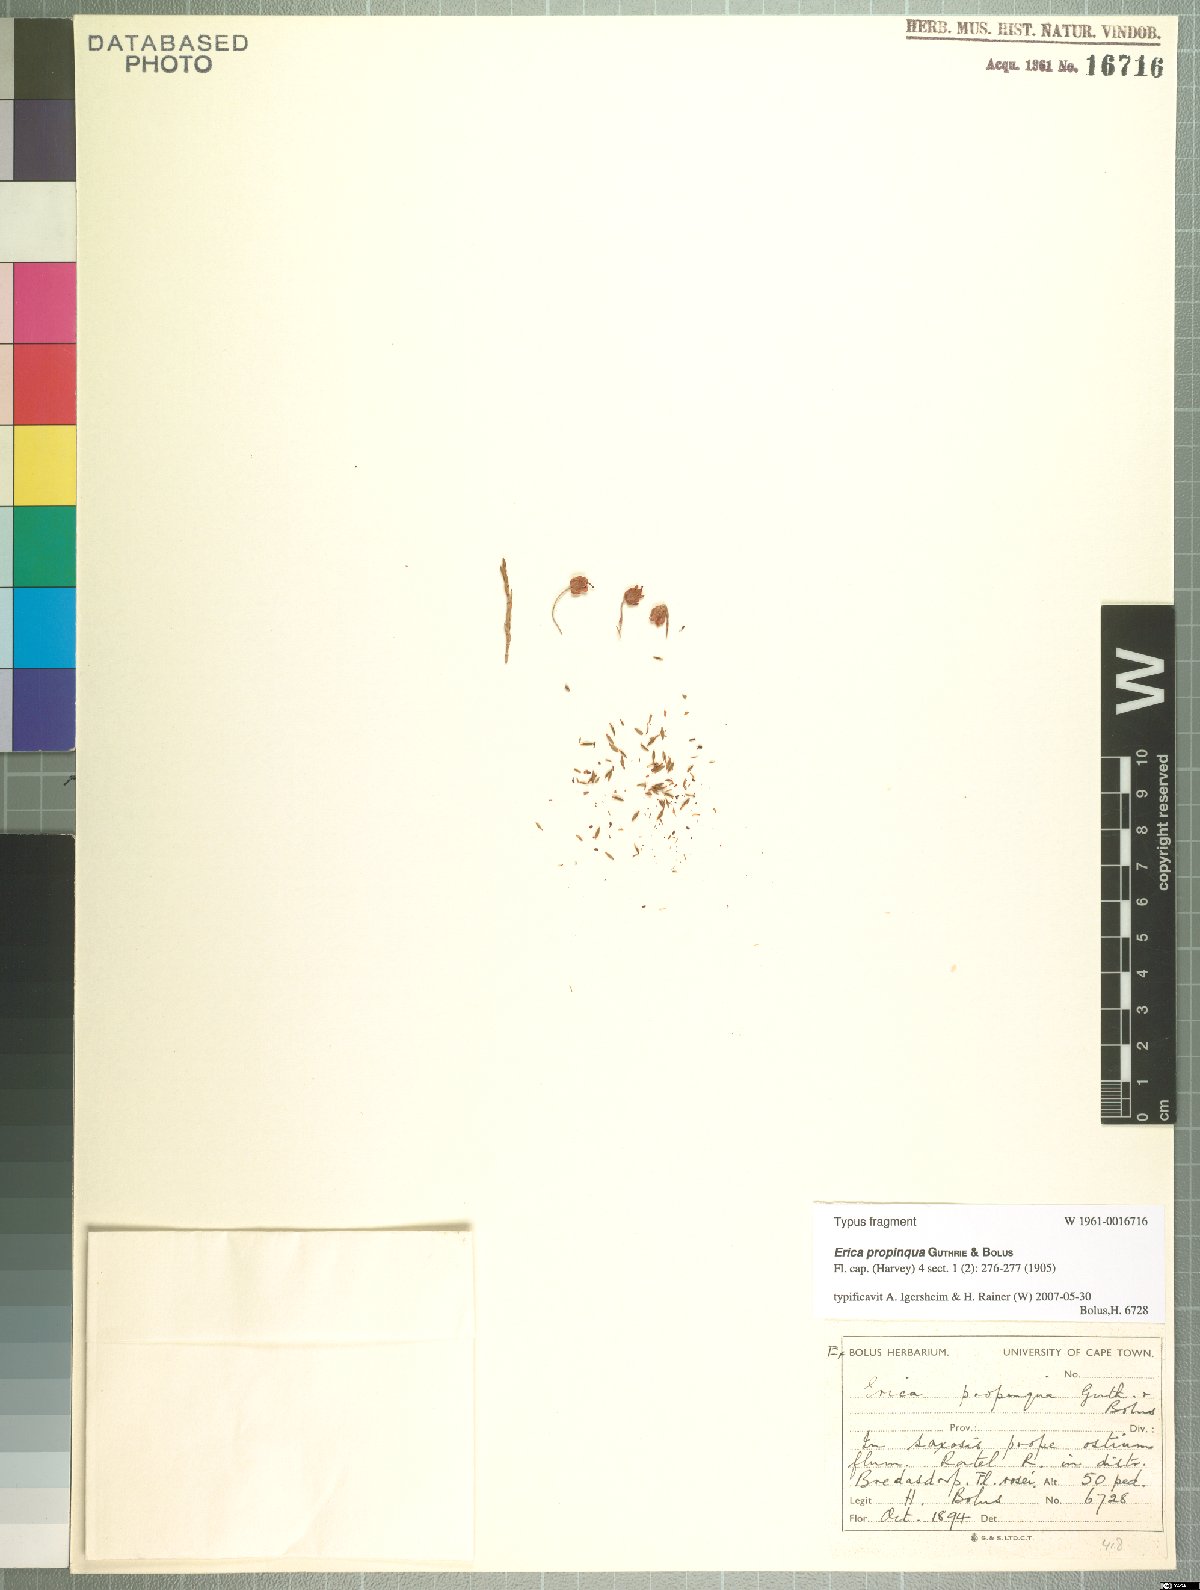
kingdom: Plantae
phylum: Tracheophyta
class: Magnoliopsida
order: Ericales
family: Ericaceae
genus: Erica
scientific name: Erica propinqua
